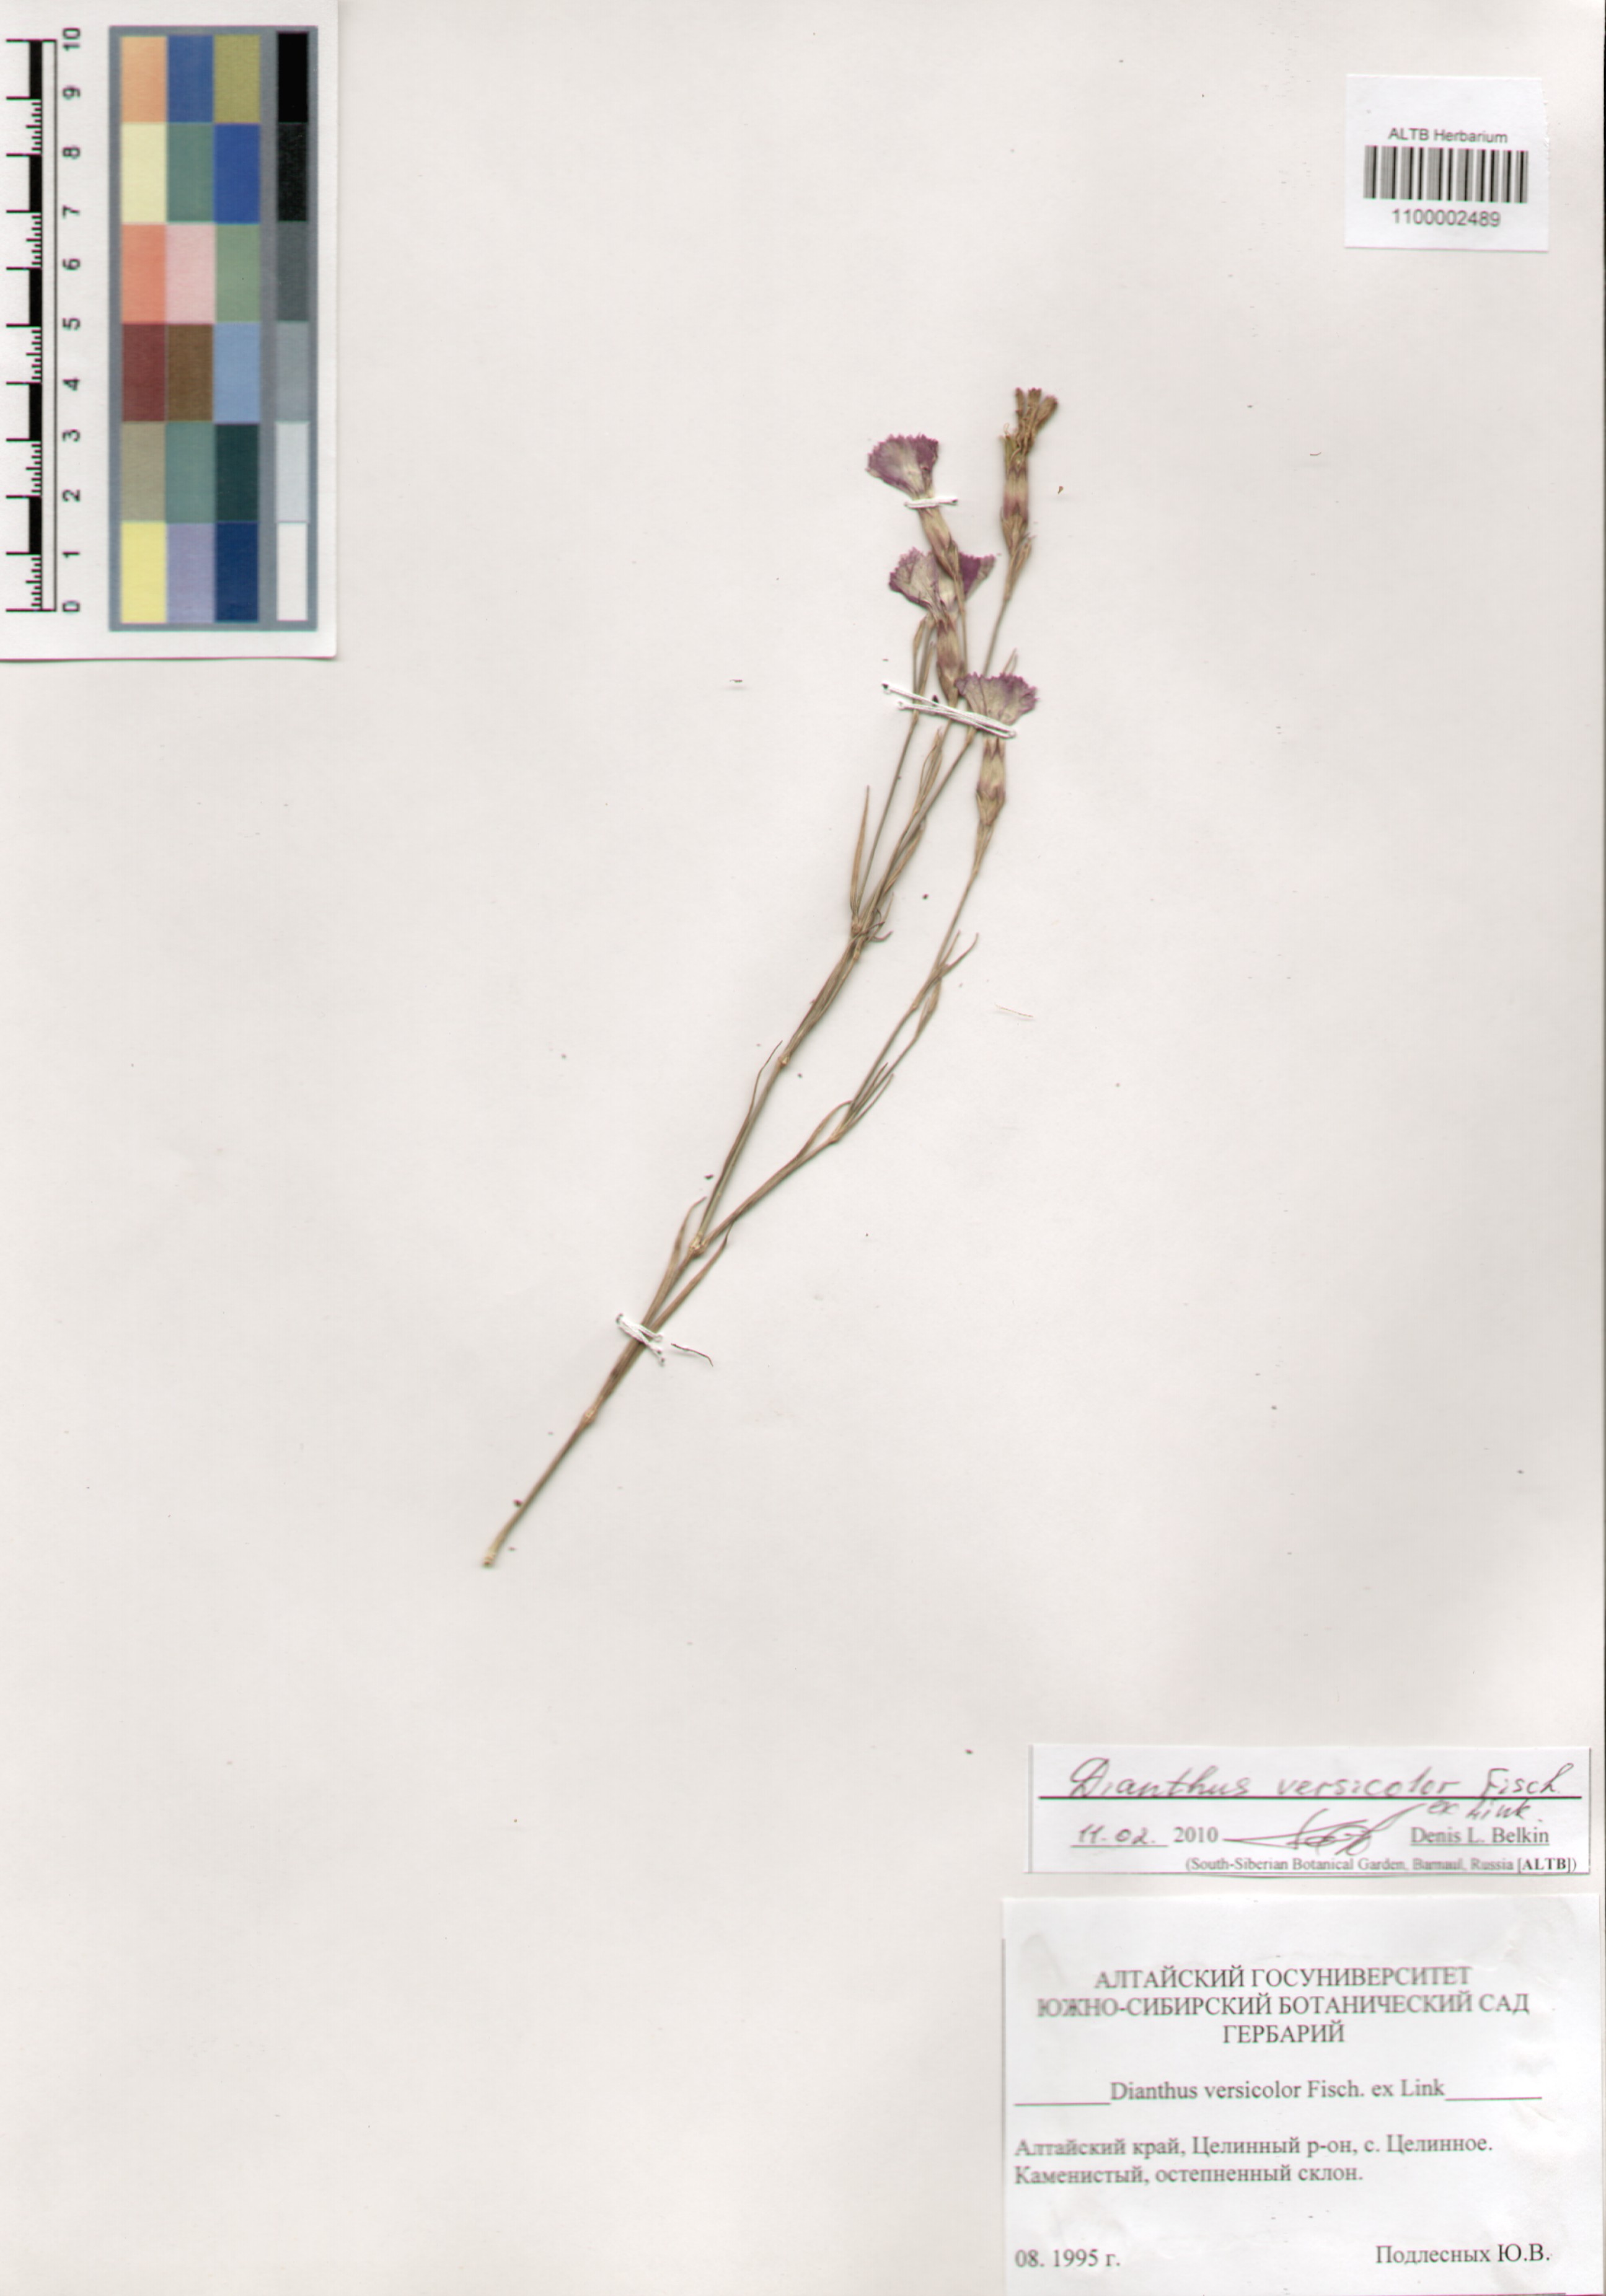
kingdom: Plantae
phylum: Tracheophyta
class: Magnoliopsida
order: Caryophyllales
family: Caryophyllaceae
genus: Dianthus
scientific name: Dianthus chinensis
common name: Rainbow pink
